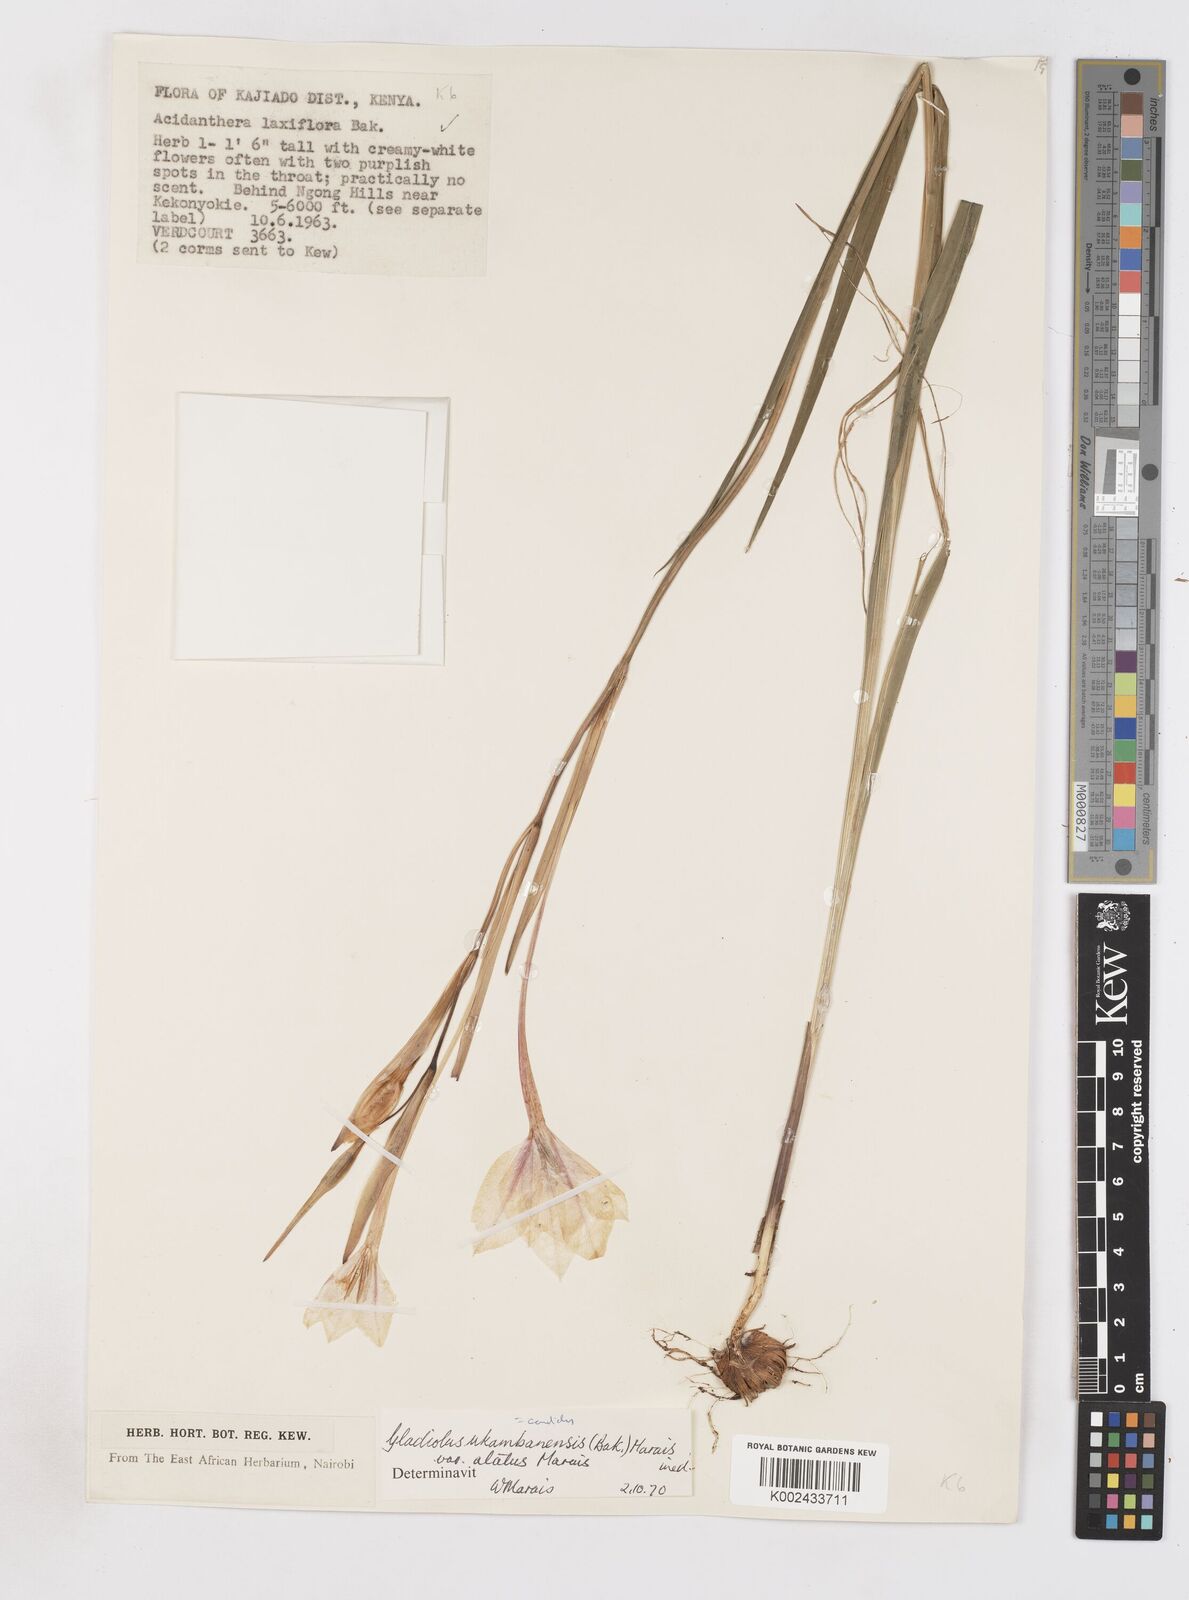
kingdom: Plantae
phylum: Tracheophyta
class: Liliopsida
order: Asparagales
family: Iridaceae
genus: Gladiolus
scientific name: Gladiolus candidus
